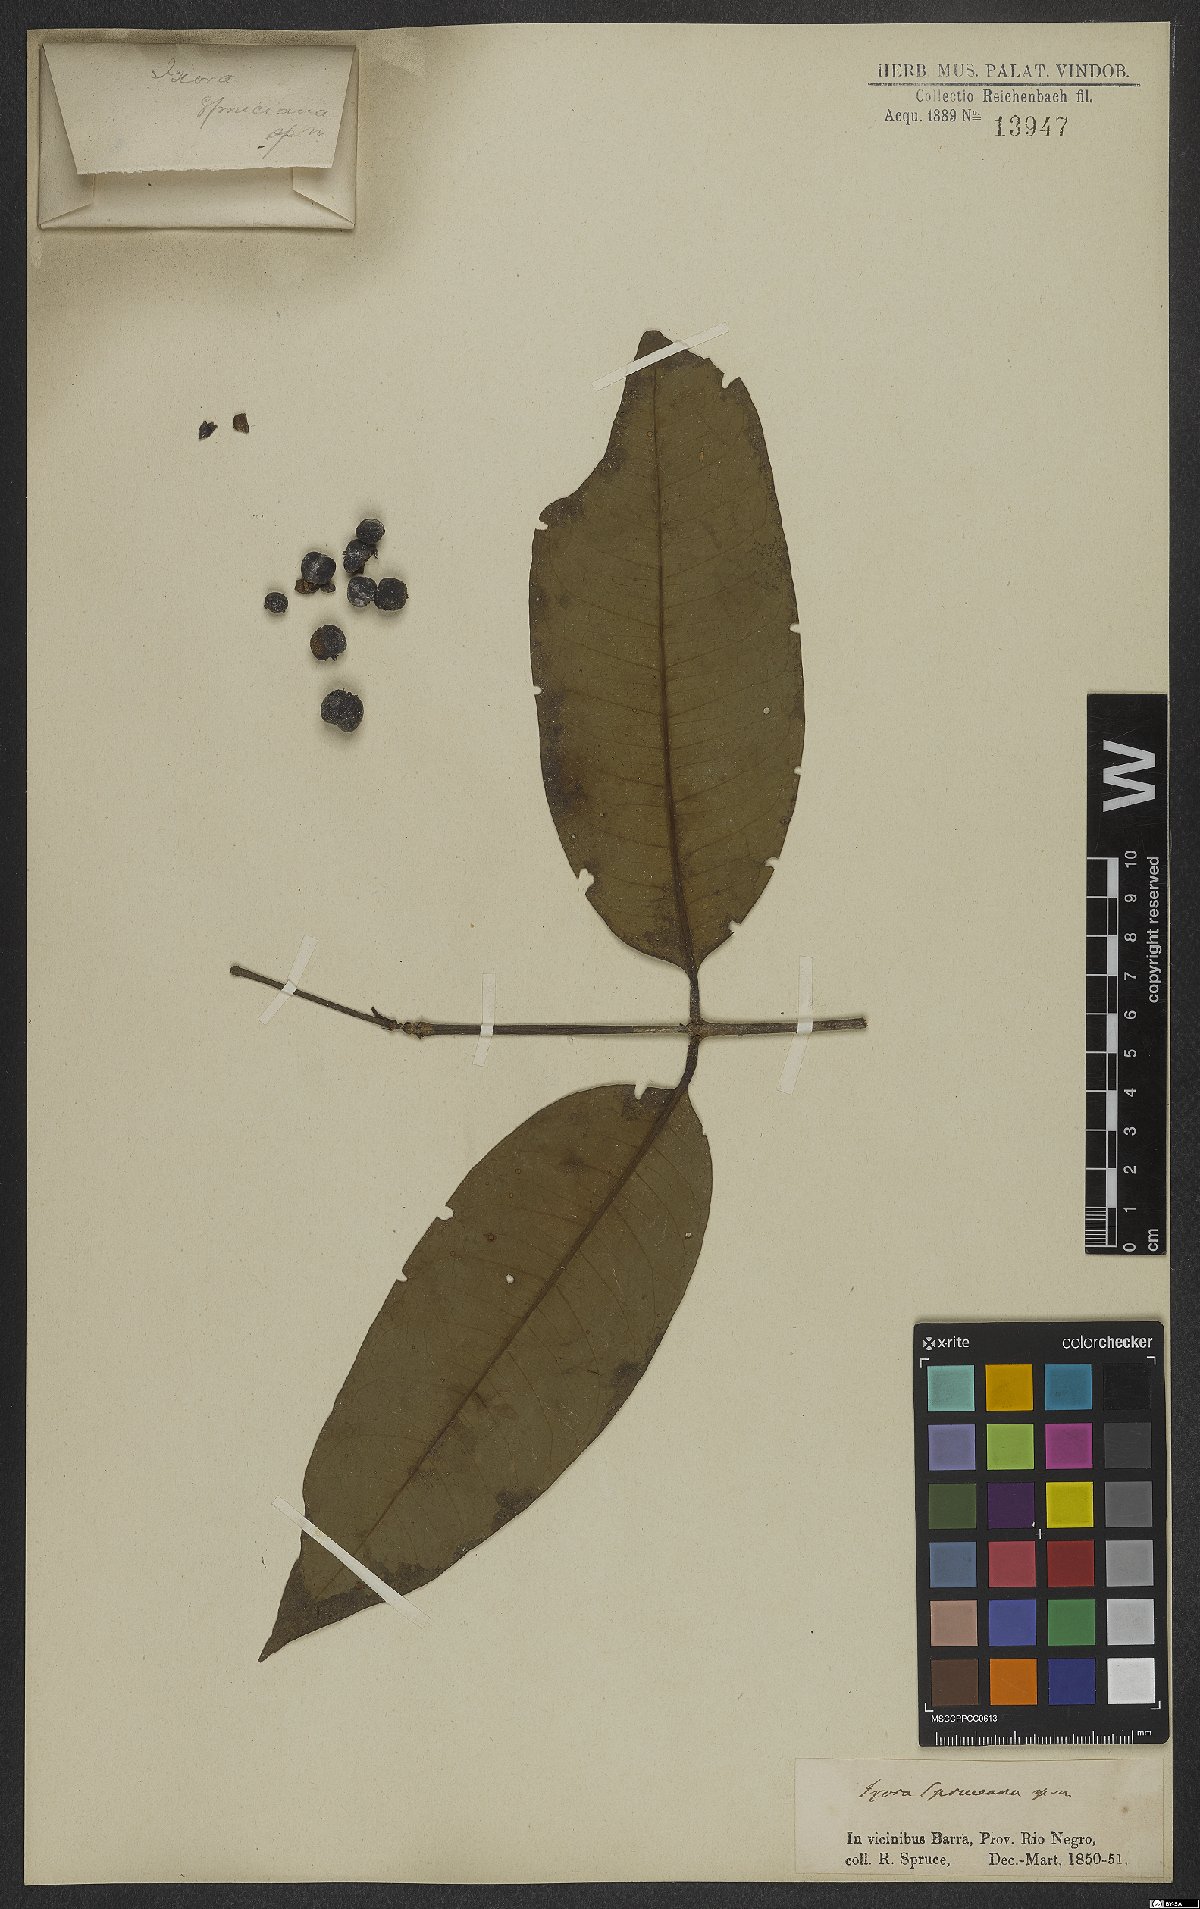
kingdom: Plantae
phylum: Tracheophyta
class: Magnoliopsida
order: Gentianales
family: Rubiaceae
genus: Ixora
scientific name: Ixora spruceana
